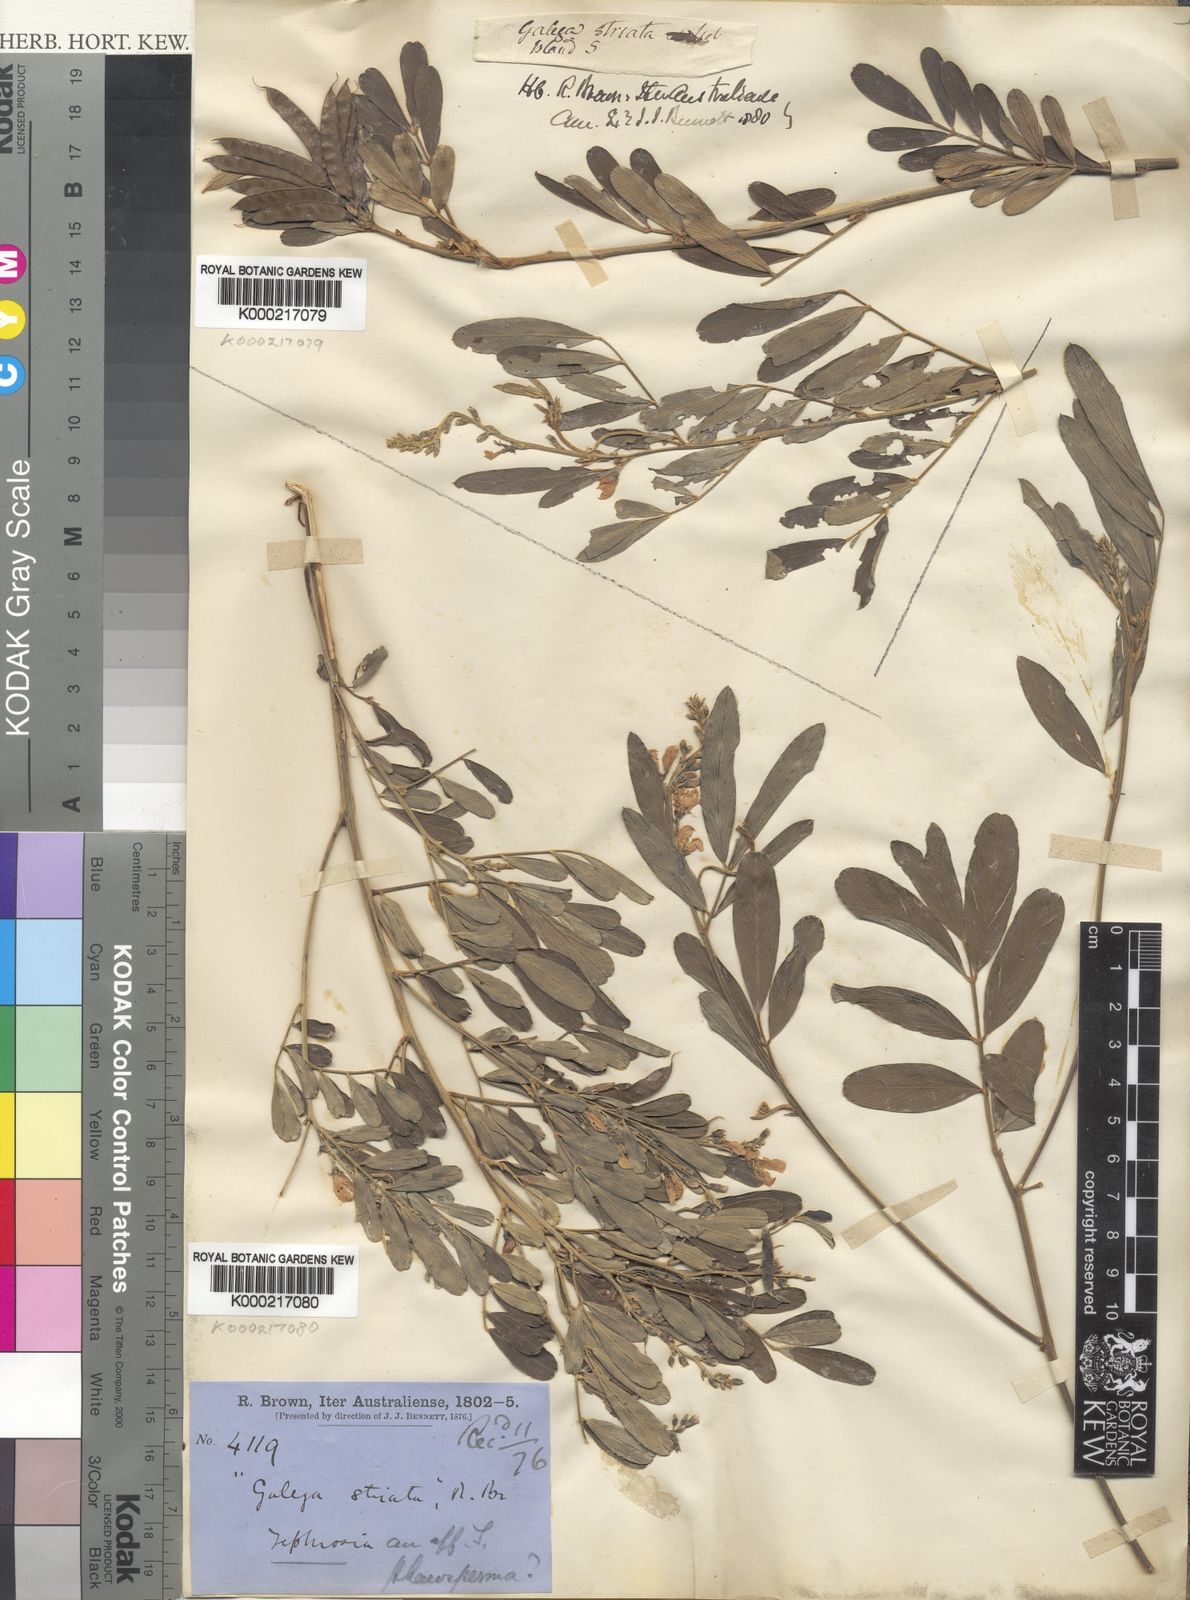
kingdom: Plantae
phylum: Tracheophyta
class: Magnoliopsida
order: Fabales
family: Fabaceae
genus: Galega
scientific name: Galega
